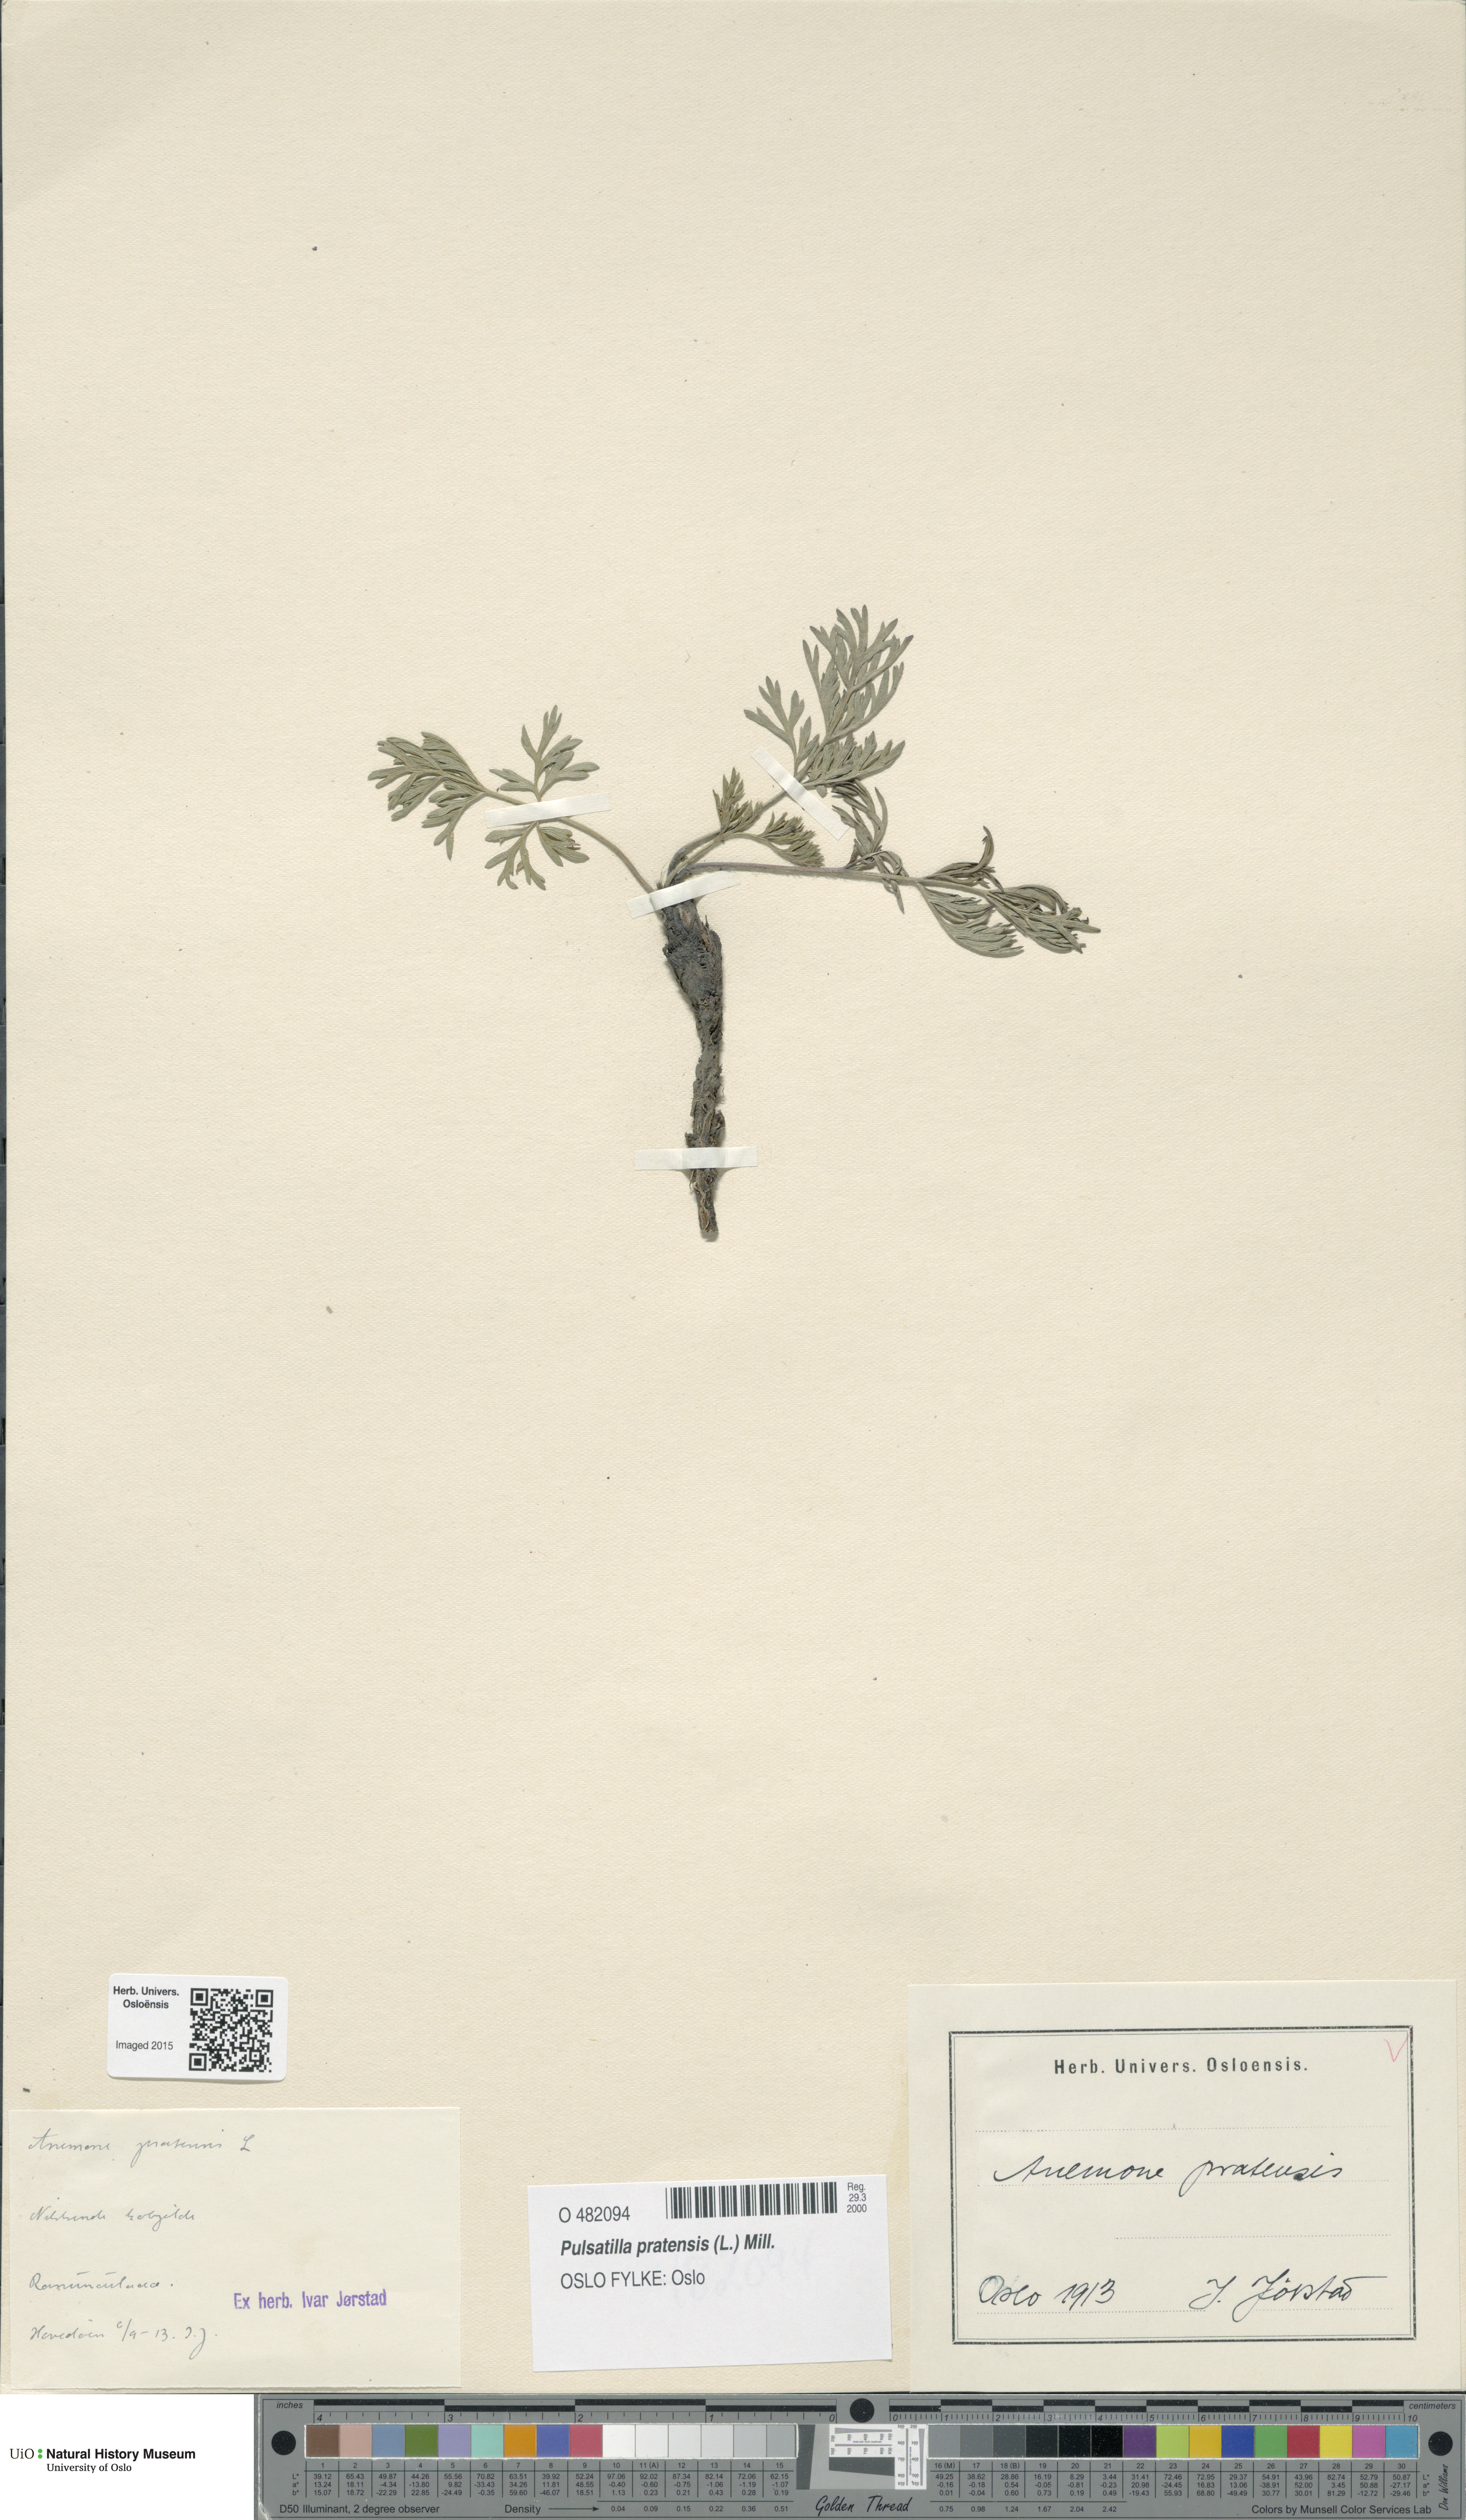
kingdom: Plantae
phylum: Tracheophyta
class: Magnoliopsida
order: Ranunculales
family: Ranunculaceae
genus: Pulsatilla
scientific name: Pulsatilla pratensis
